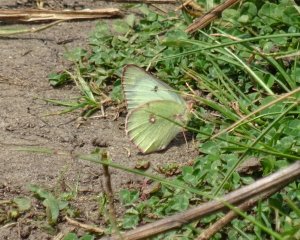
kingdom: Animalia
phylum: Arthropoda
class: Insecta
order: Lepidoptera
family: Pieridae
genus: Colias
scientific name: Colias philodice
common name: Clouded Sulphur
